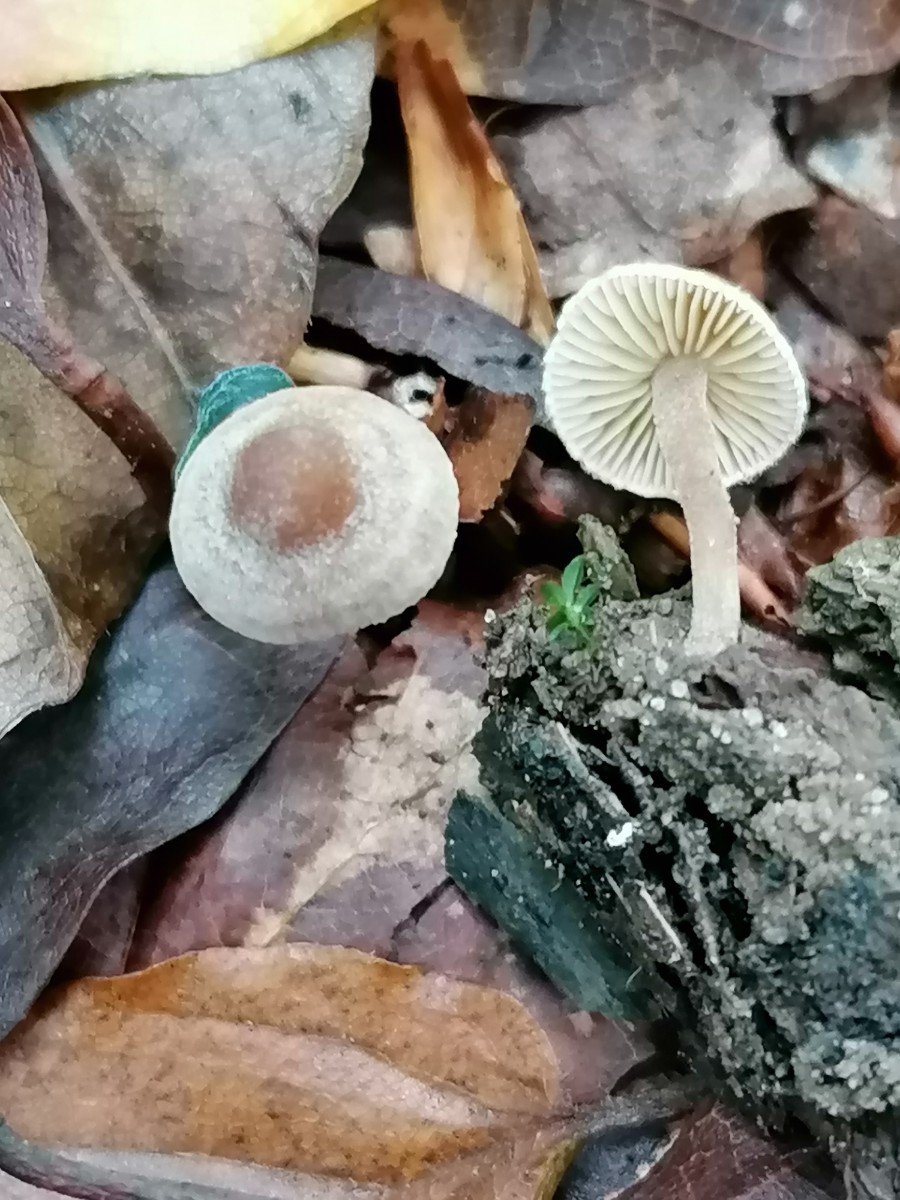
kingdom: Fungi
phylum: Basidiomycota
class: Agaricomycetes
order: Agaricales
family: Inocybaceae
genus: Inocybe
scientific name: Inocybe petiginosa
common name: liden trævlhat
